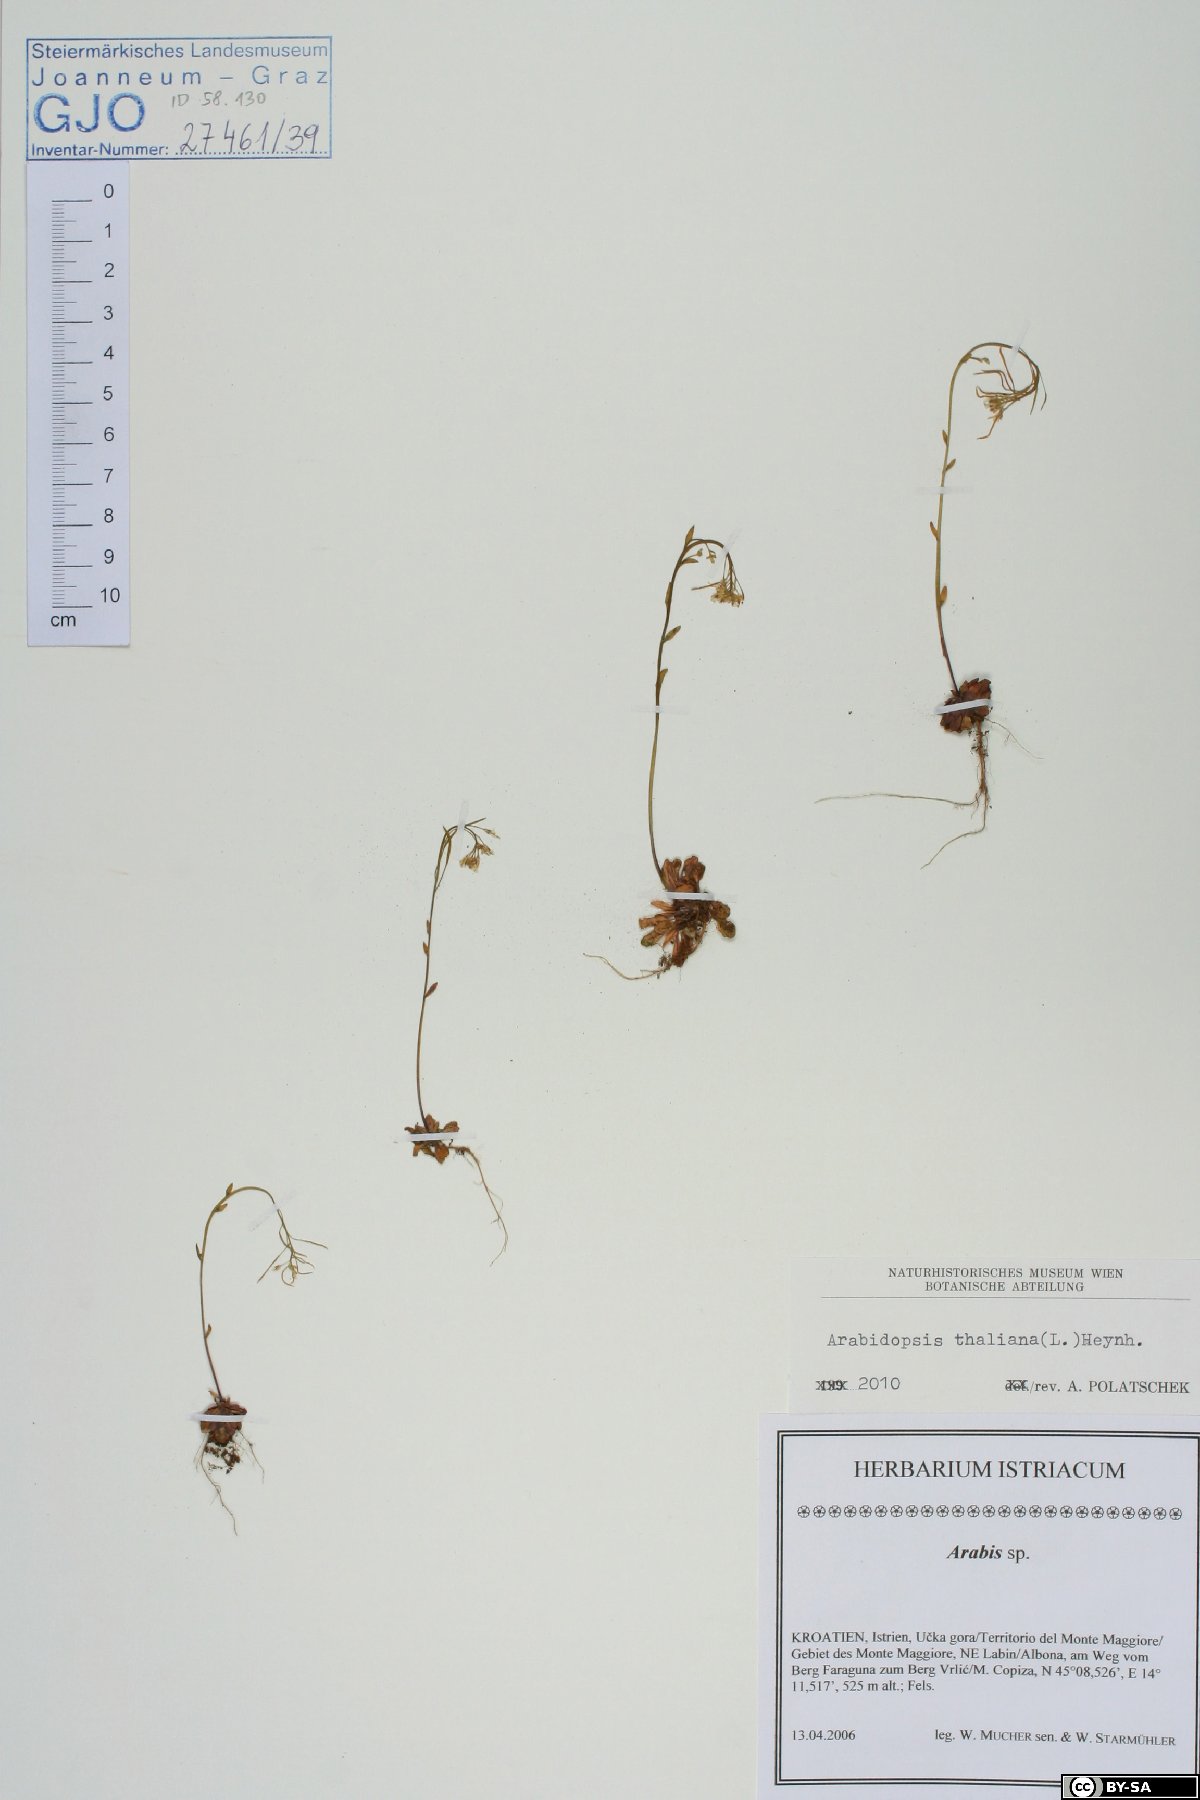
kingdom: Plantae
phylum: Tracheophyta
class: Magnoliopsida
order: Brassicales
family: Brassicaceae
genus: Arabidopsis
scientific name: Arabidopsis thaliana
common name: Thale cress
